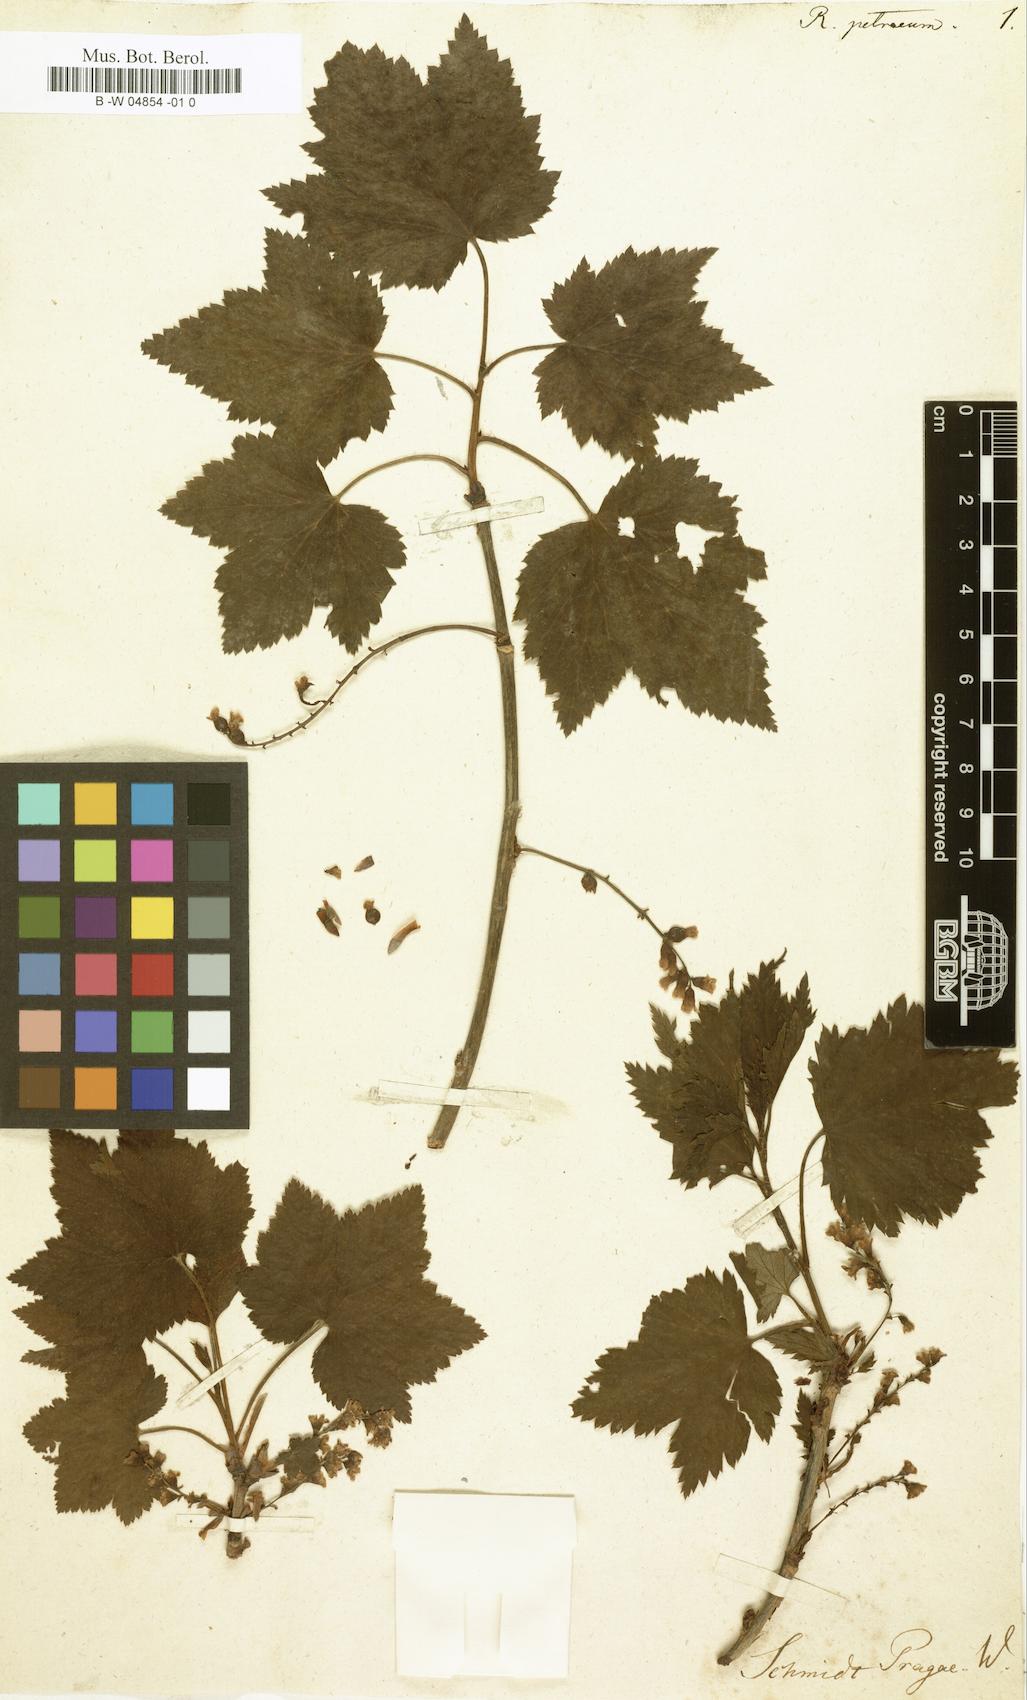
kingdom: Plantae
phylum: Tracheophyta
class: Magnoliopsida
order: Saxifragales
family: Grossulariaceae
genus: Ribes
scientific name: Ribes petraeum
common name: Rock currant
